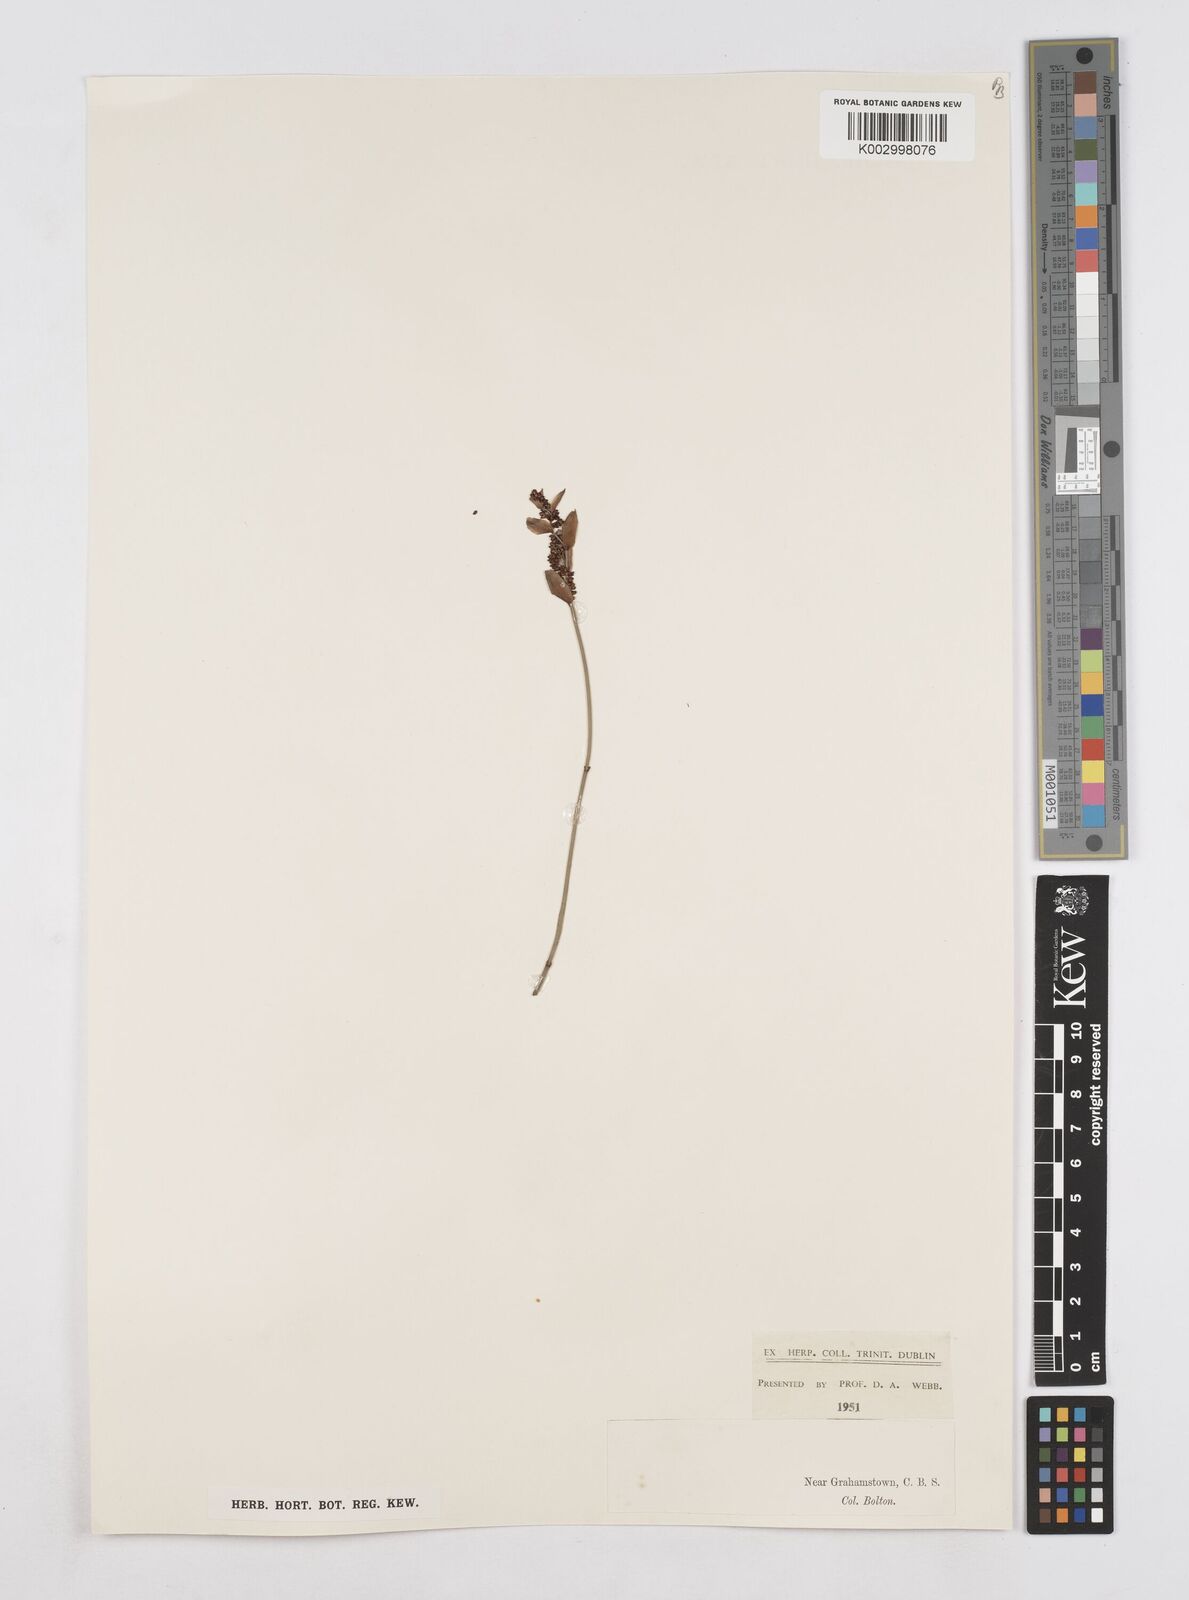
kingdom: Plantae
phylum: Tracheophyta
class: Liliopsida
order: Poales
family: Restionaceae
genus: Elegia
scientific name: Elegia
